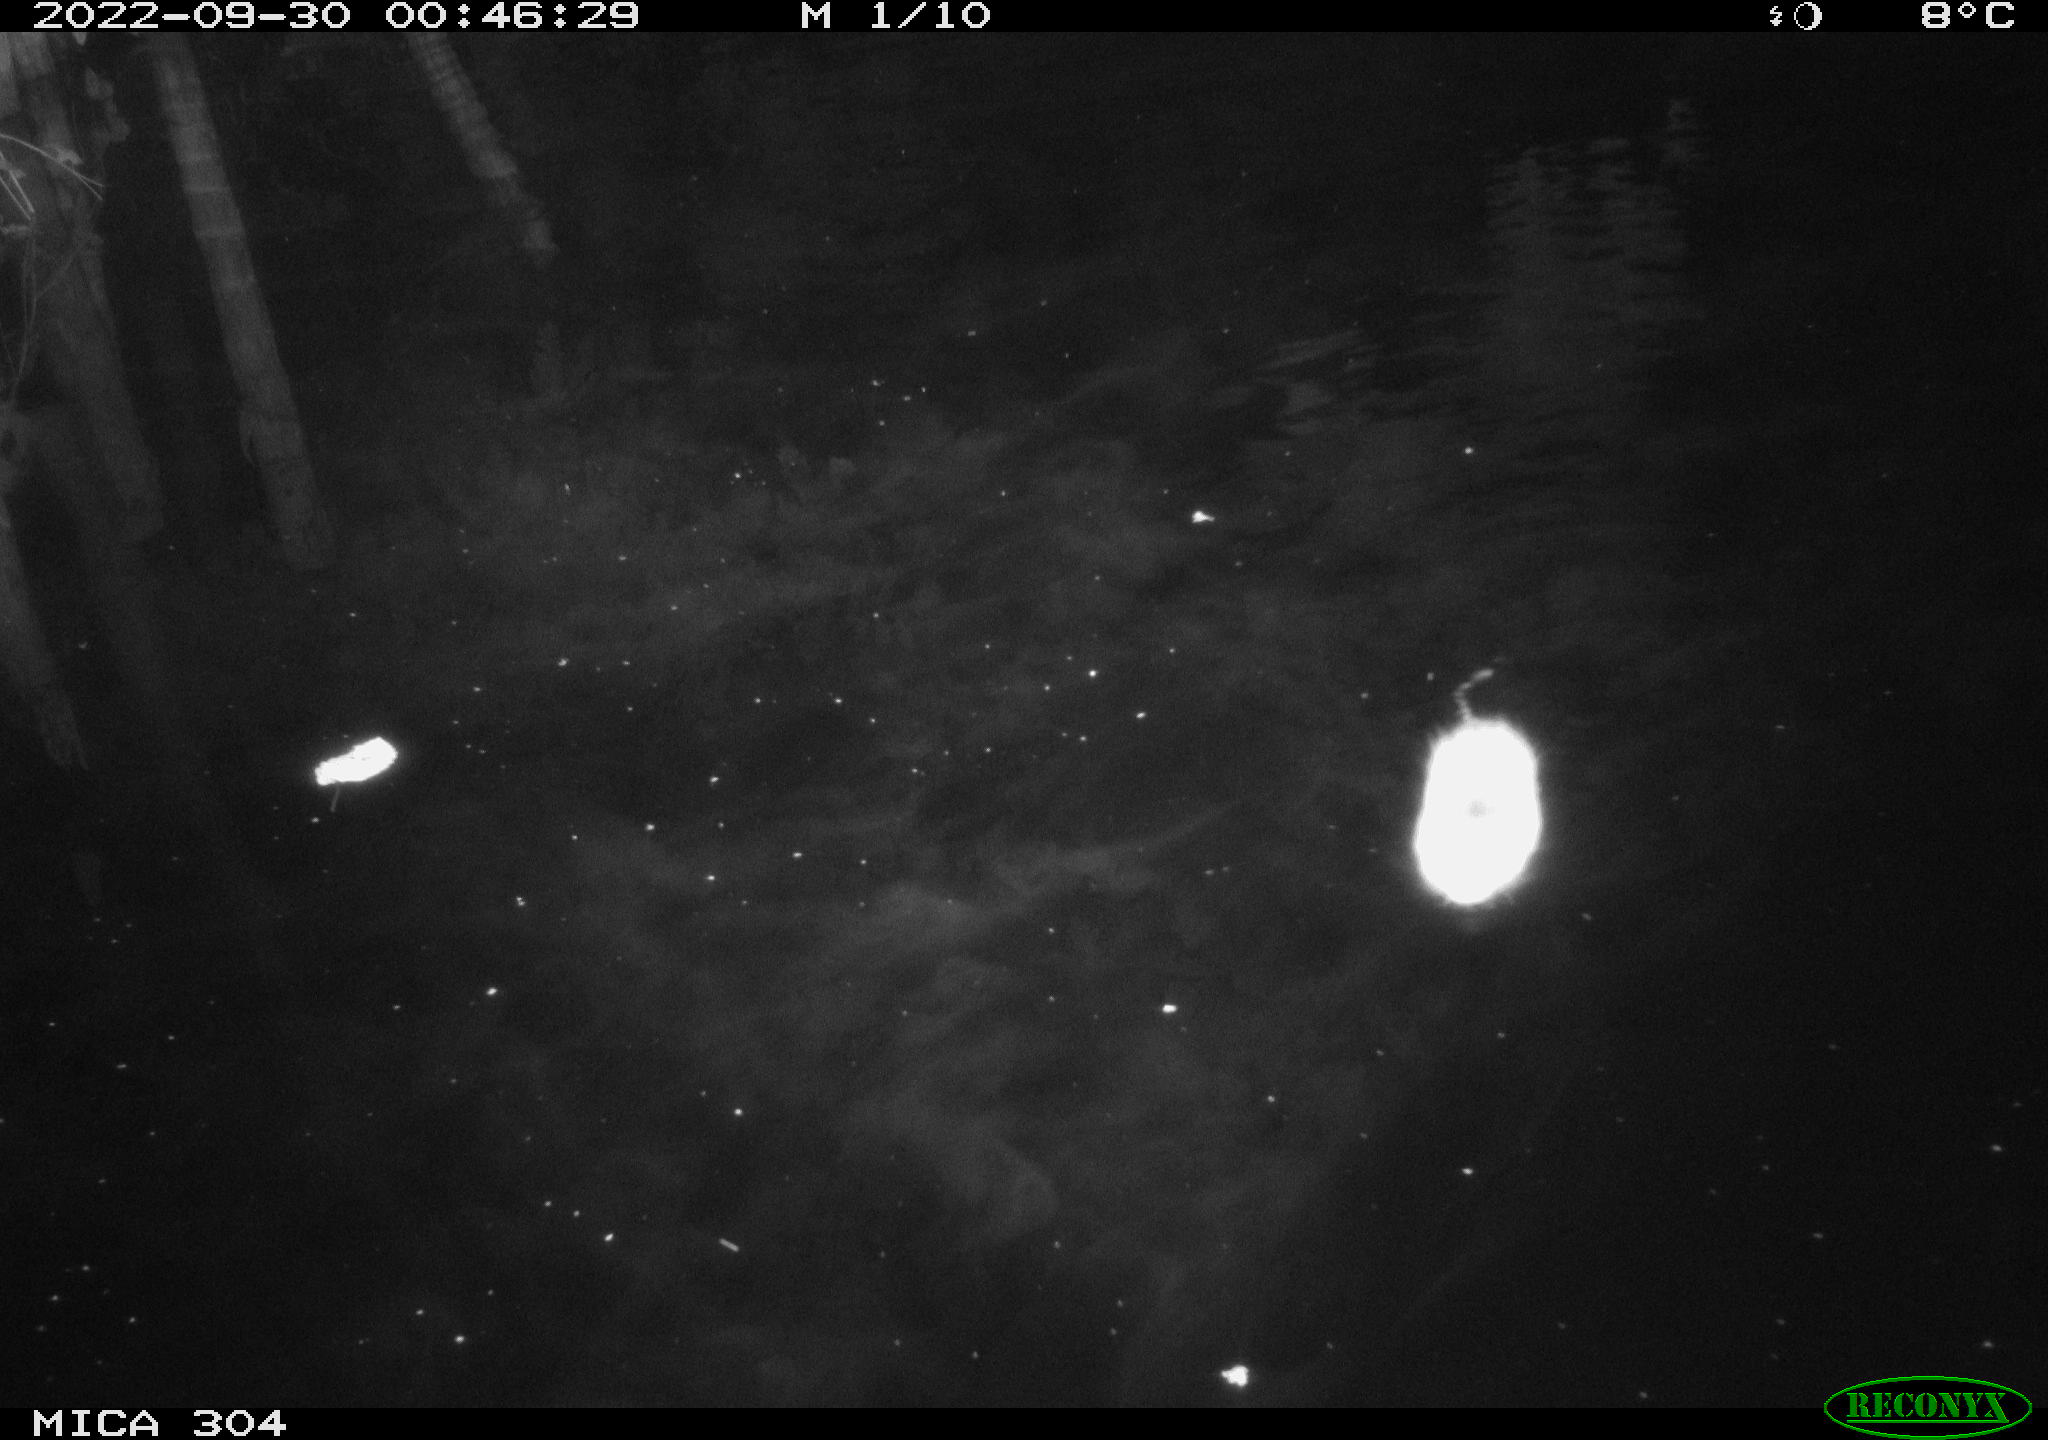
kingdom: Animalia
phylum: Chordata
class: Mammalia
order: Rodentia
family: Cricetidae
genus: Ondatra
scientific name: Ondatra zibethicus
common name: Muskrat
